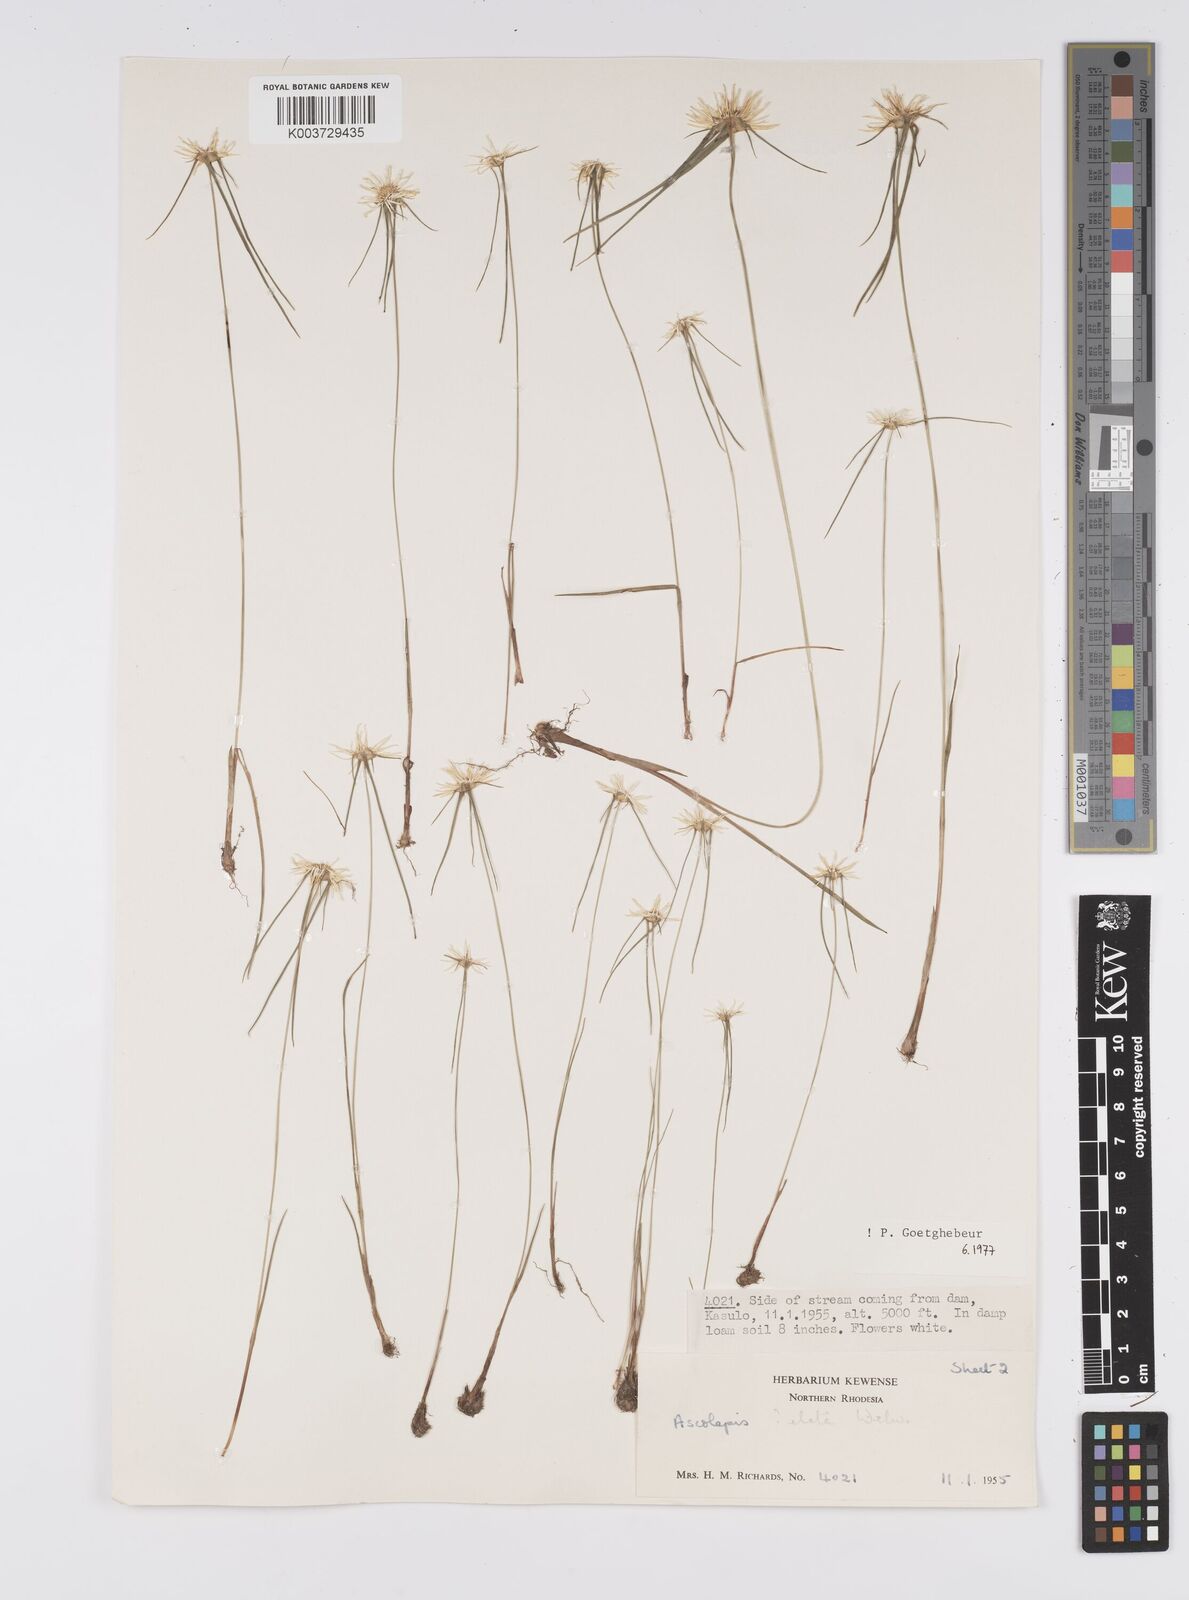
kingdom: Plantae
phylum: Tracheophyta
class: Liliopsida
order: Poales
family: Cyperaceae
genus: Cyperus
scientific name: Cyperus
